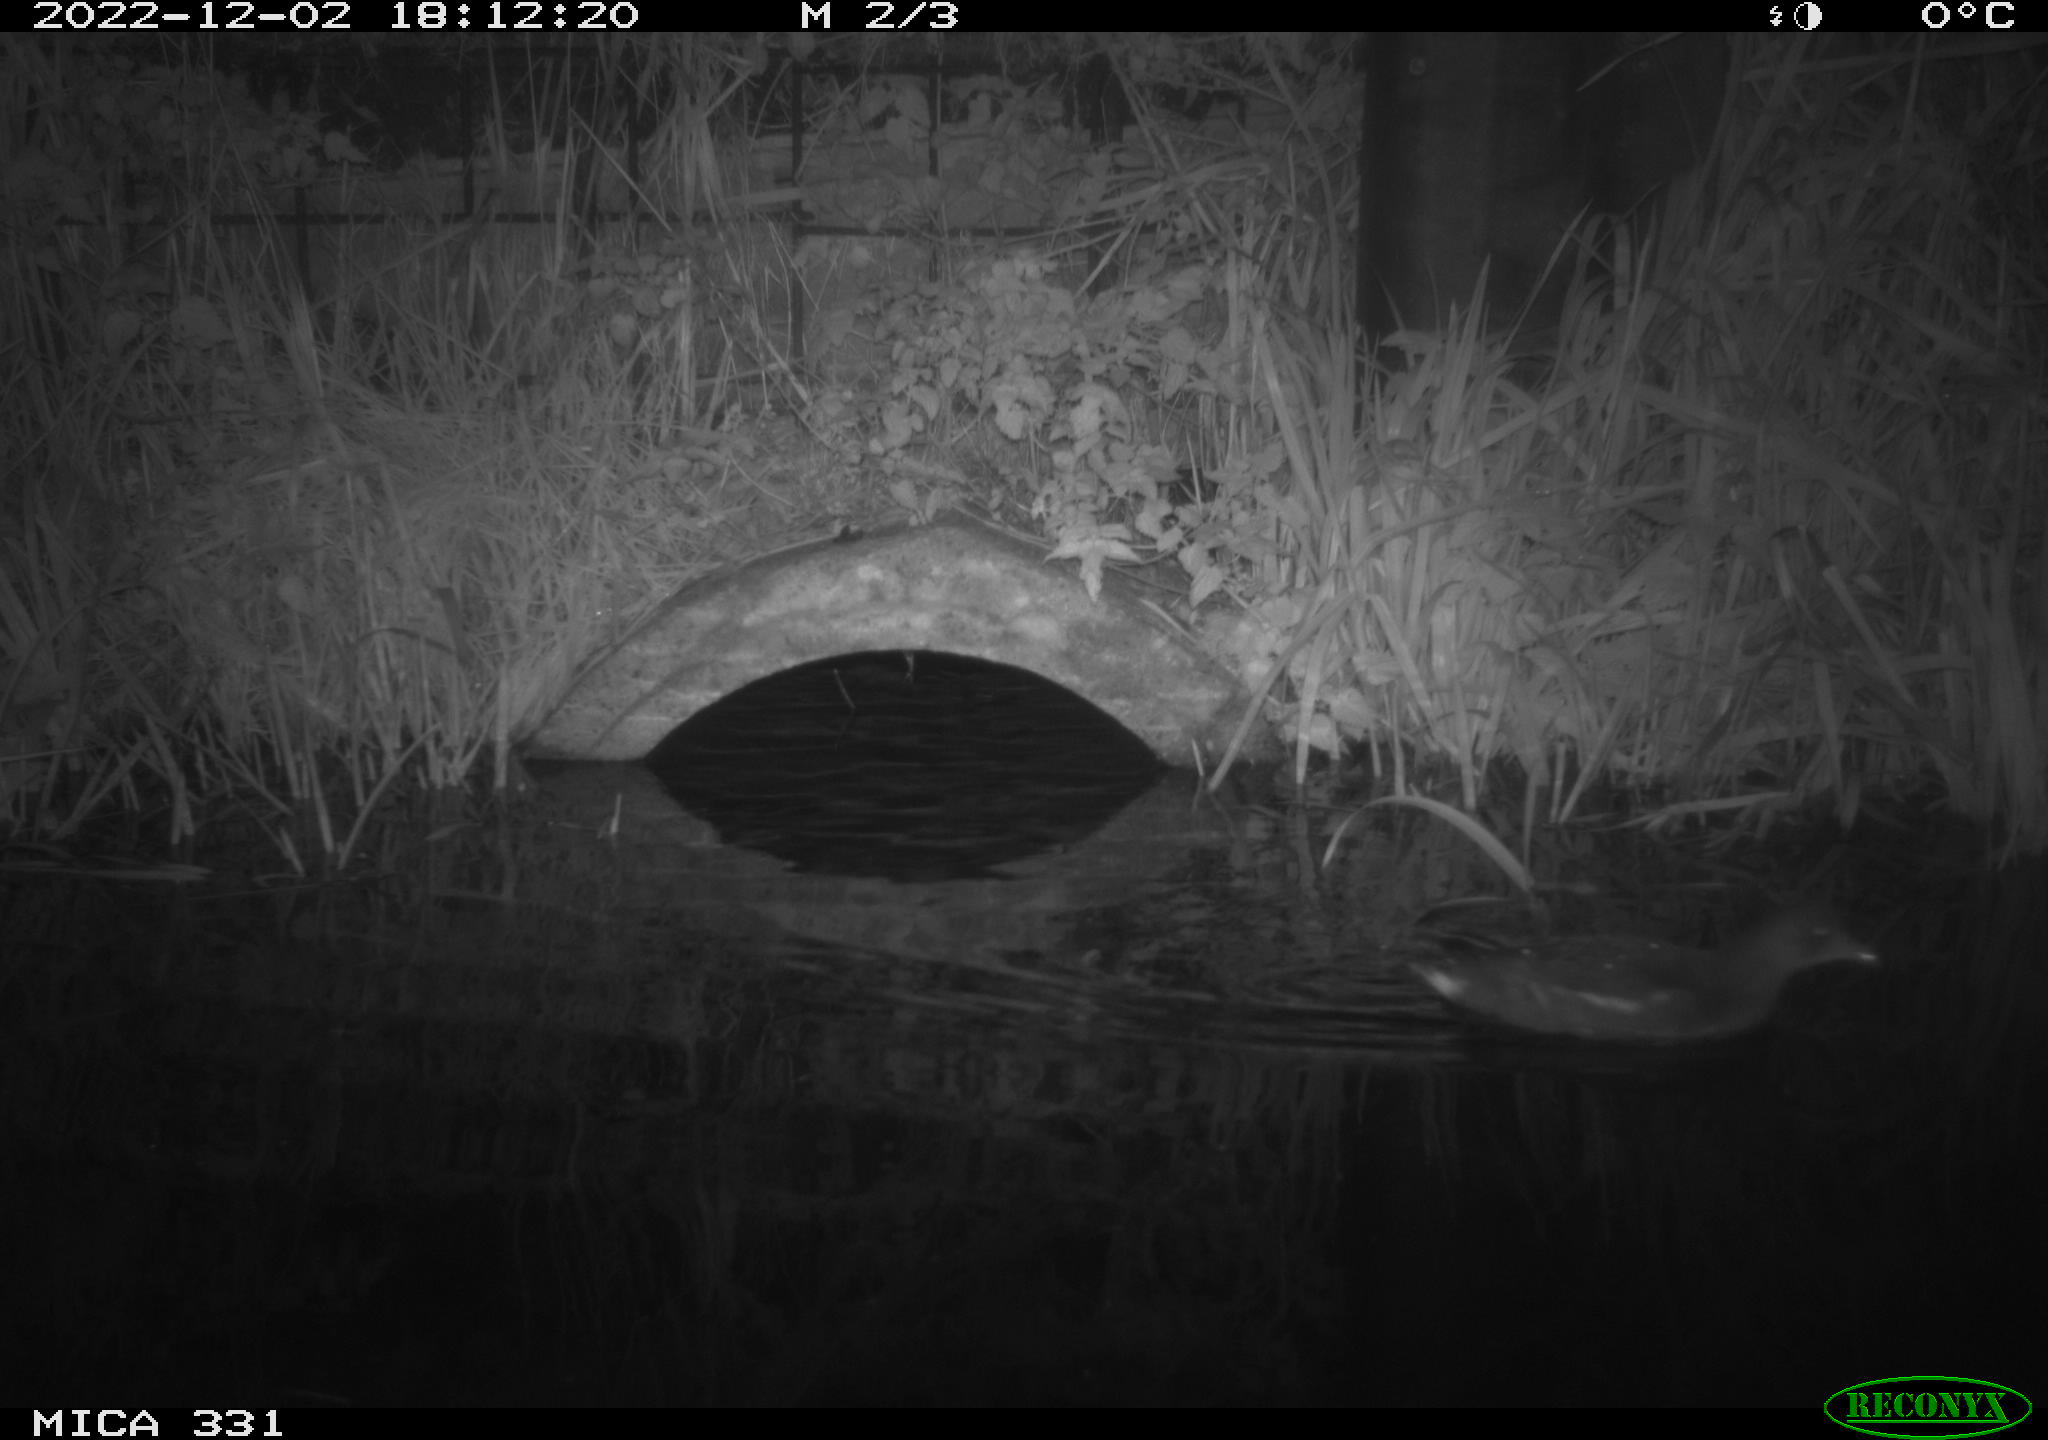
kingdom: Animalia
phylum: Chordata
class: Aves
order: Gruiformes
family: Rallidae
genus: Gallinula
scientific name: Gallinula chloropus
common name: Common moorhen
